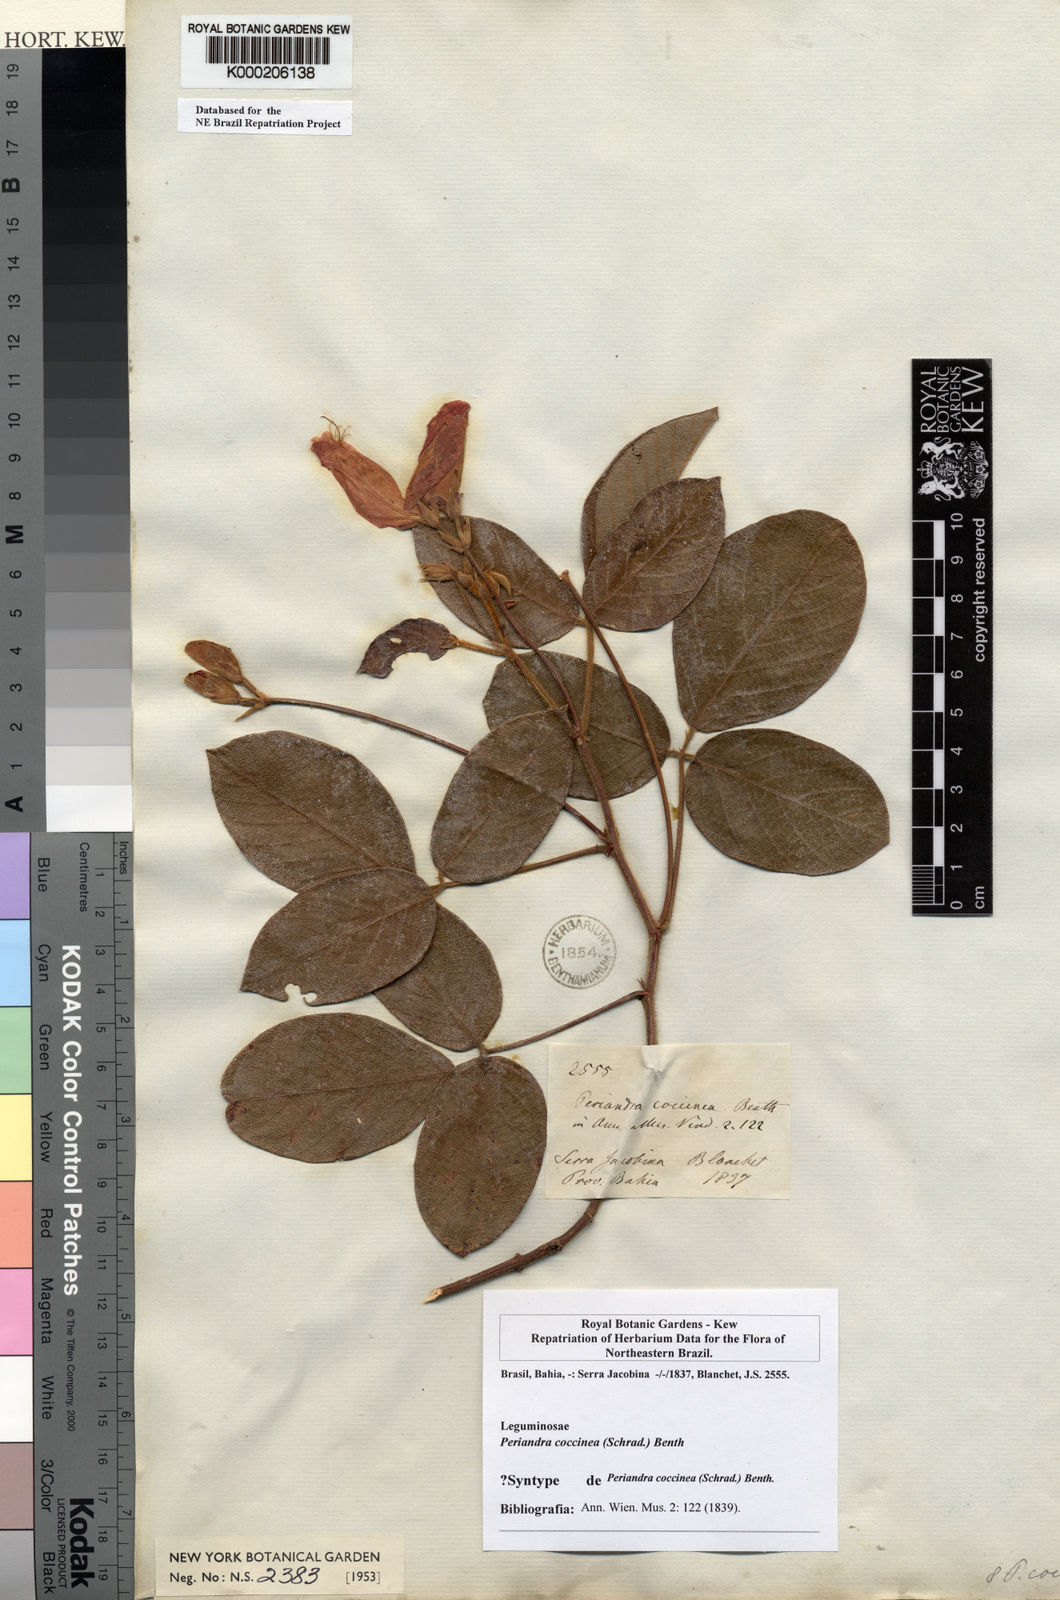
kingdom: Plantae
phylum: Tracheophyta
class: Magnoliopsida
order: Fabales
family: Fabaceae
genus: Periandra
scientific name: Periandra coccinea
